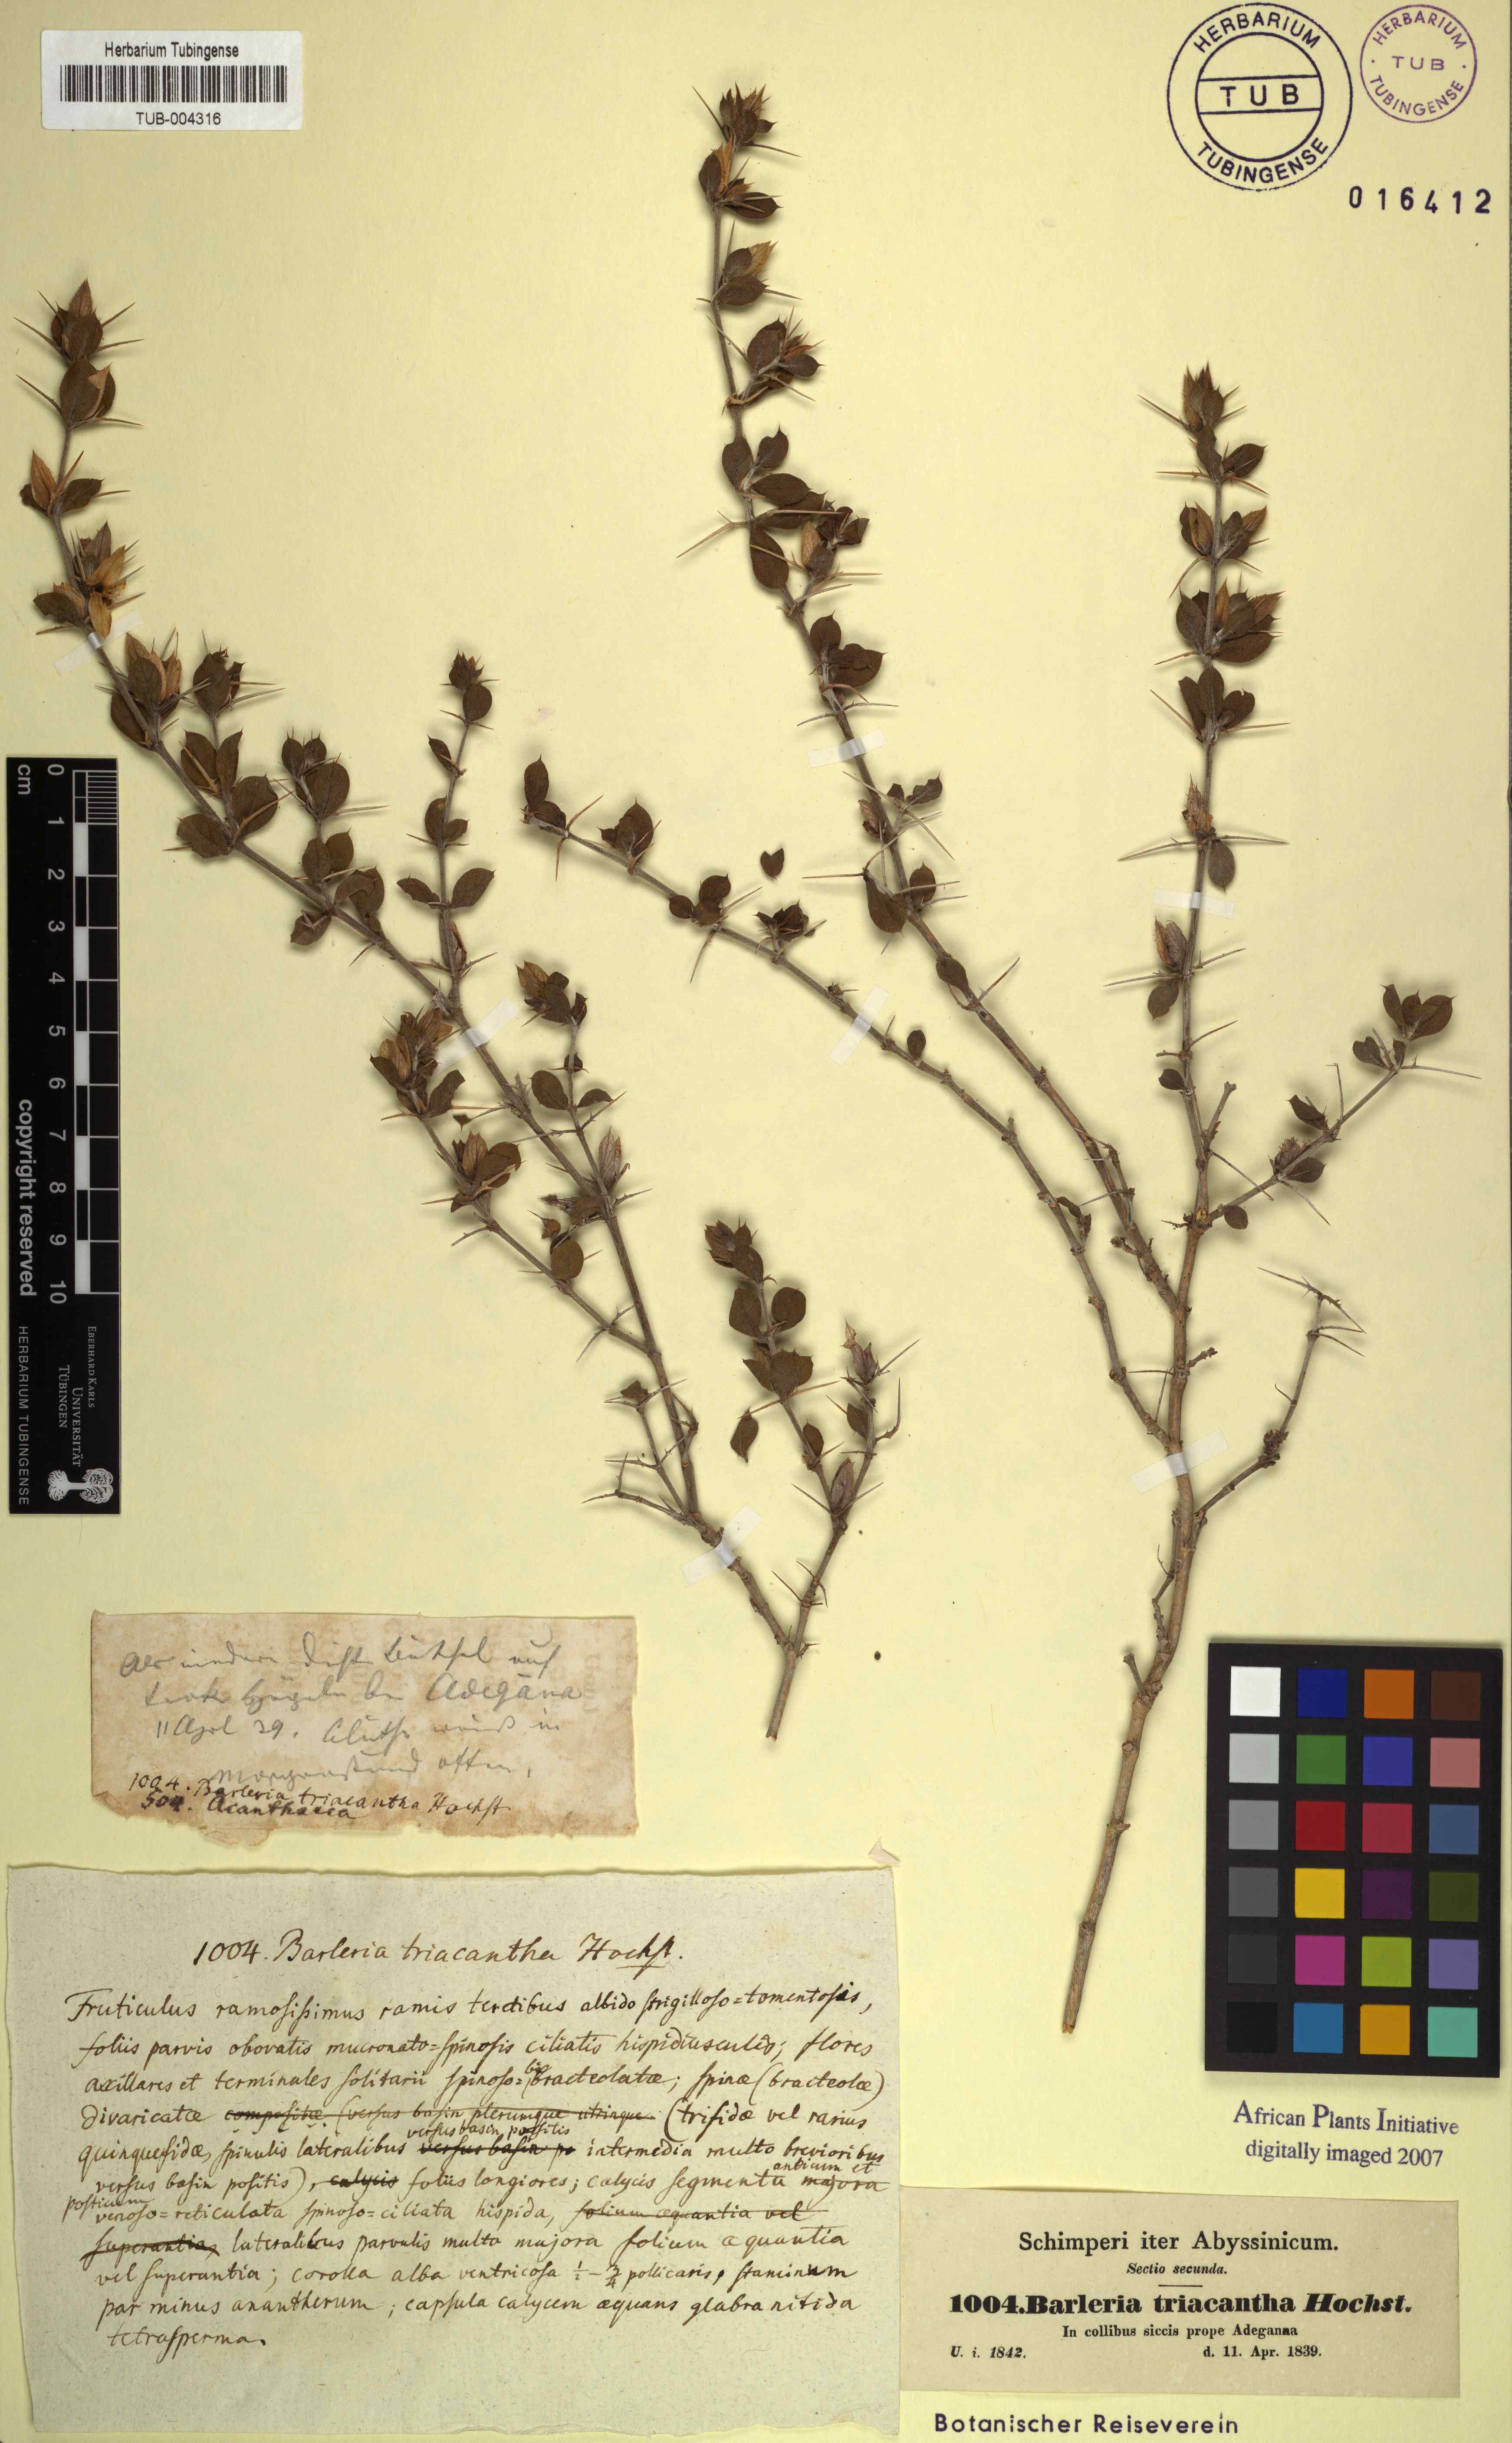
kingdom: Plantae
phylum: Tracheophyta
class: Magnoliopsida
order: Lamiales
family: Acanthaceae
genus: Barleria
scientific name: Barleria acanthoides
